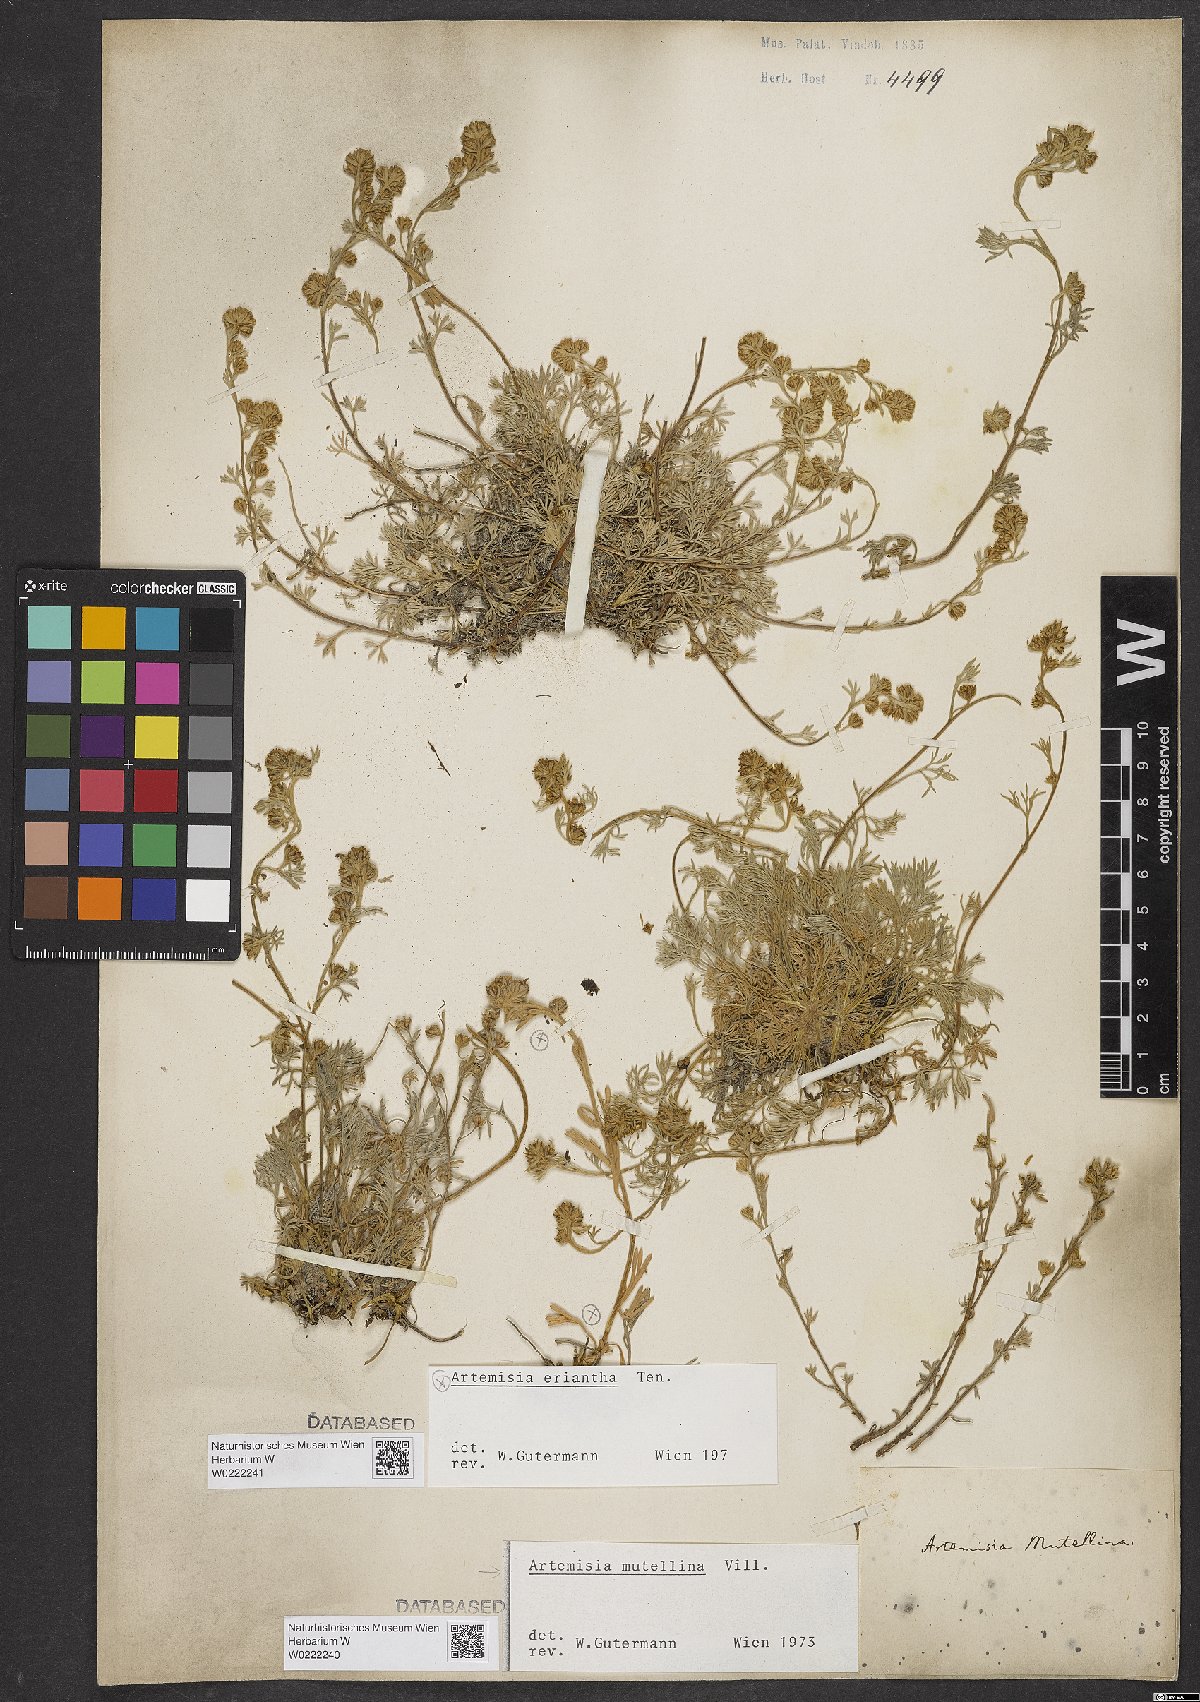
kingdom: Plantae
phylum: Tracheophyta
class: Magnoliopsida
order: Asterales
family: Asteraceae
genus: Artemisia
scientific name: Artemisia mutellina
